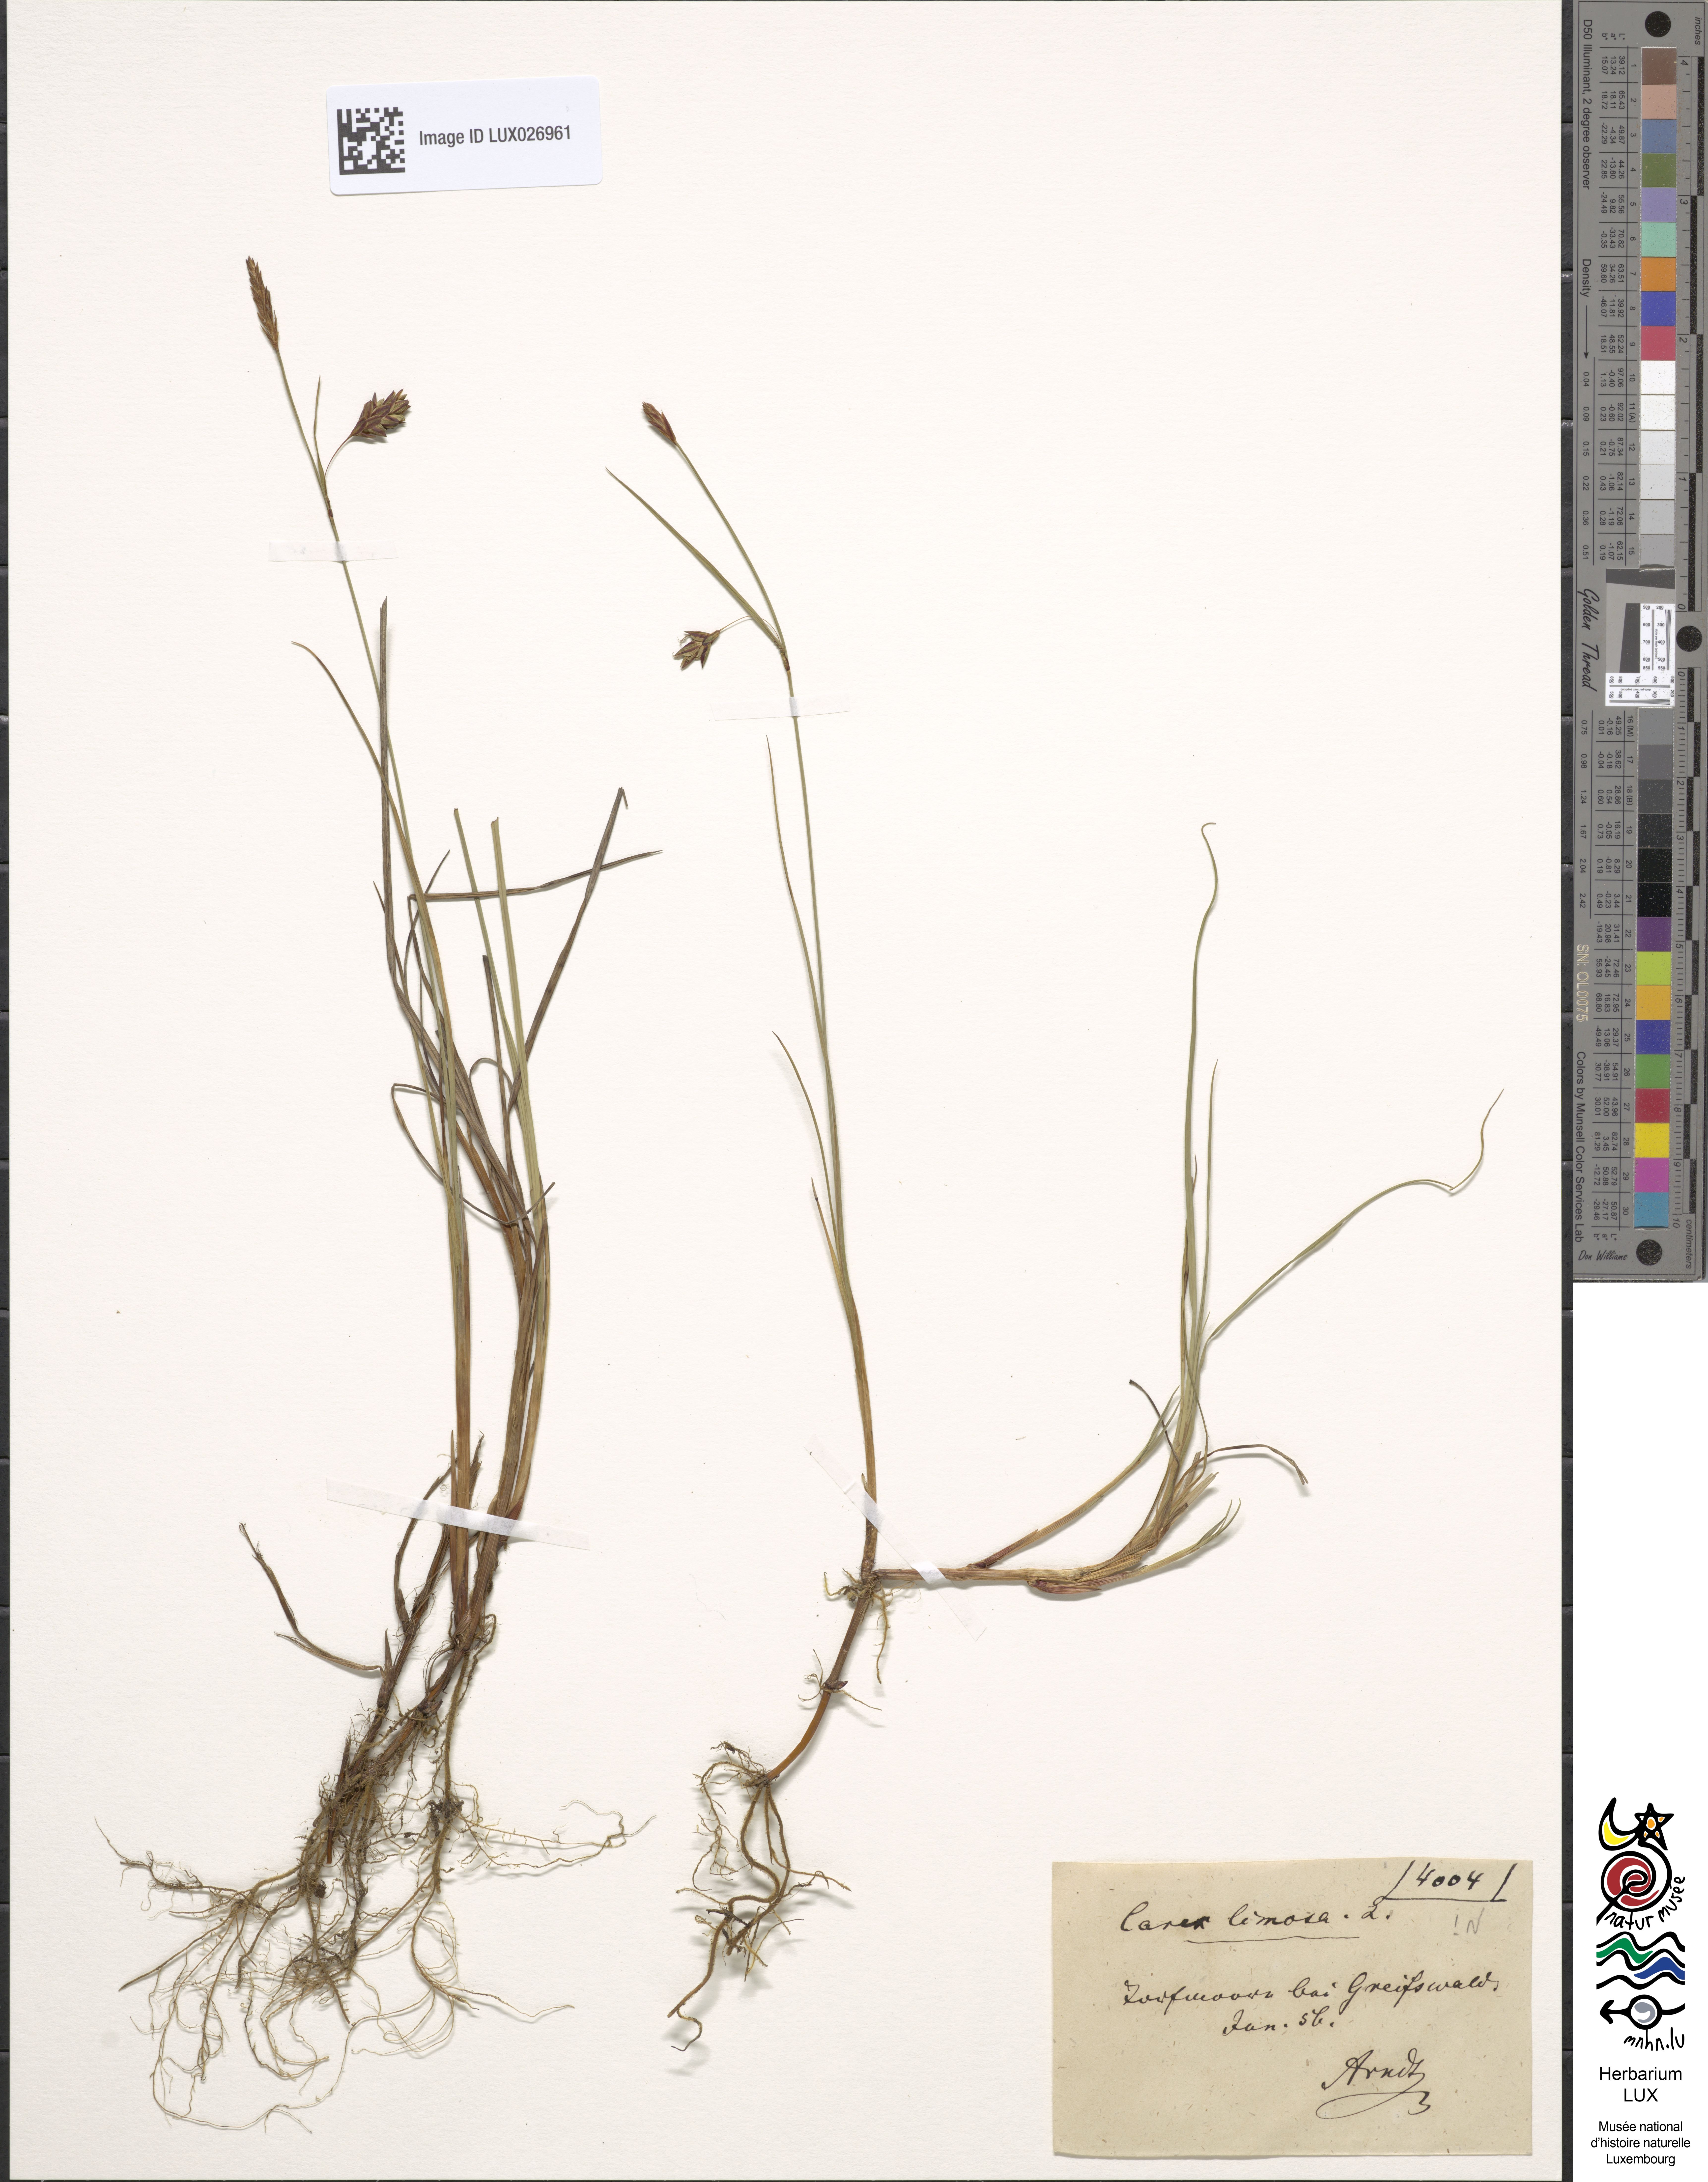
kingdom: Plantae
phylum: Tracheophyta
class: Liliopsida
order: Poales
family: Cyperaceae
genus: Carex
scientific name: Carex limosa
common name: Bog sedge
